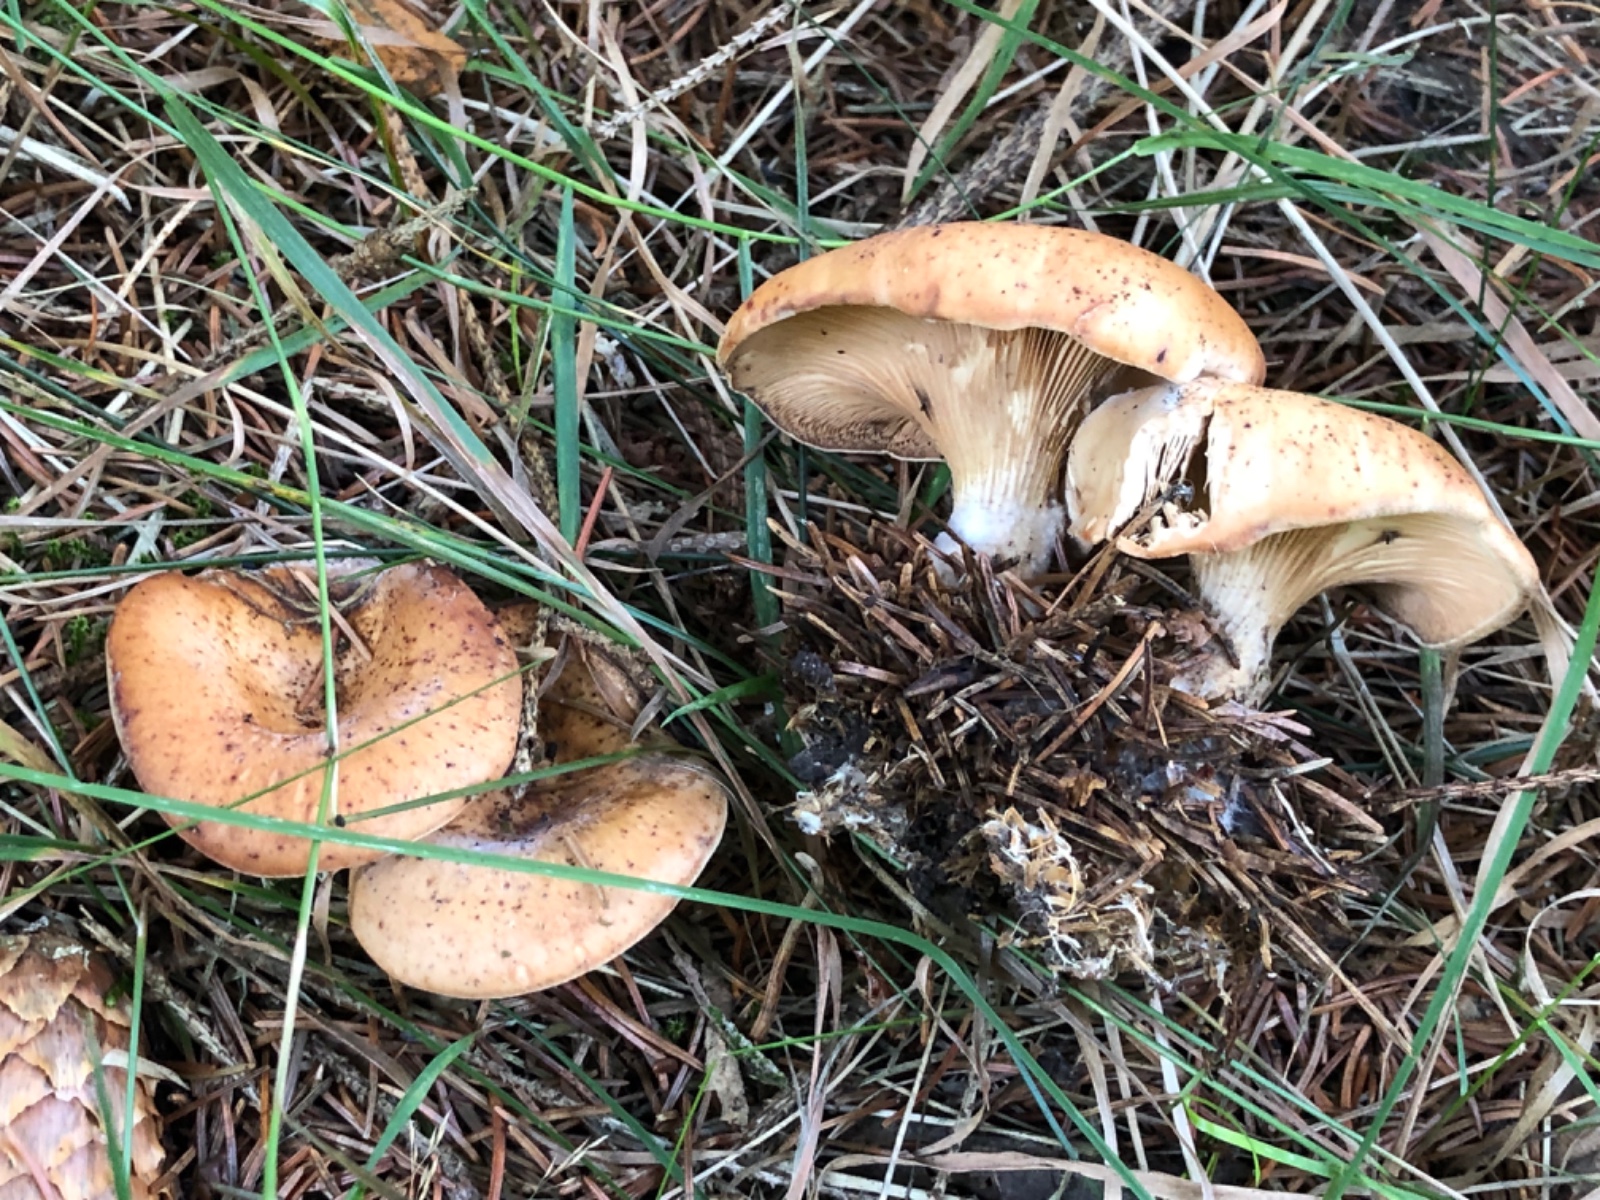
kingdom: Fungi
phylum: Basidiomycota
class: Agaricomycetes
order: Agaricales
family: Tricholomataceae
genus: Paralepista
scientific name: Paralepista flaccida
